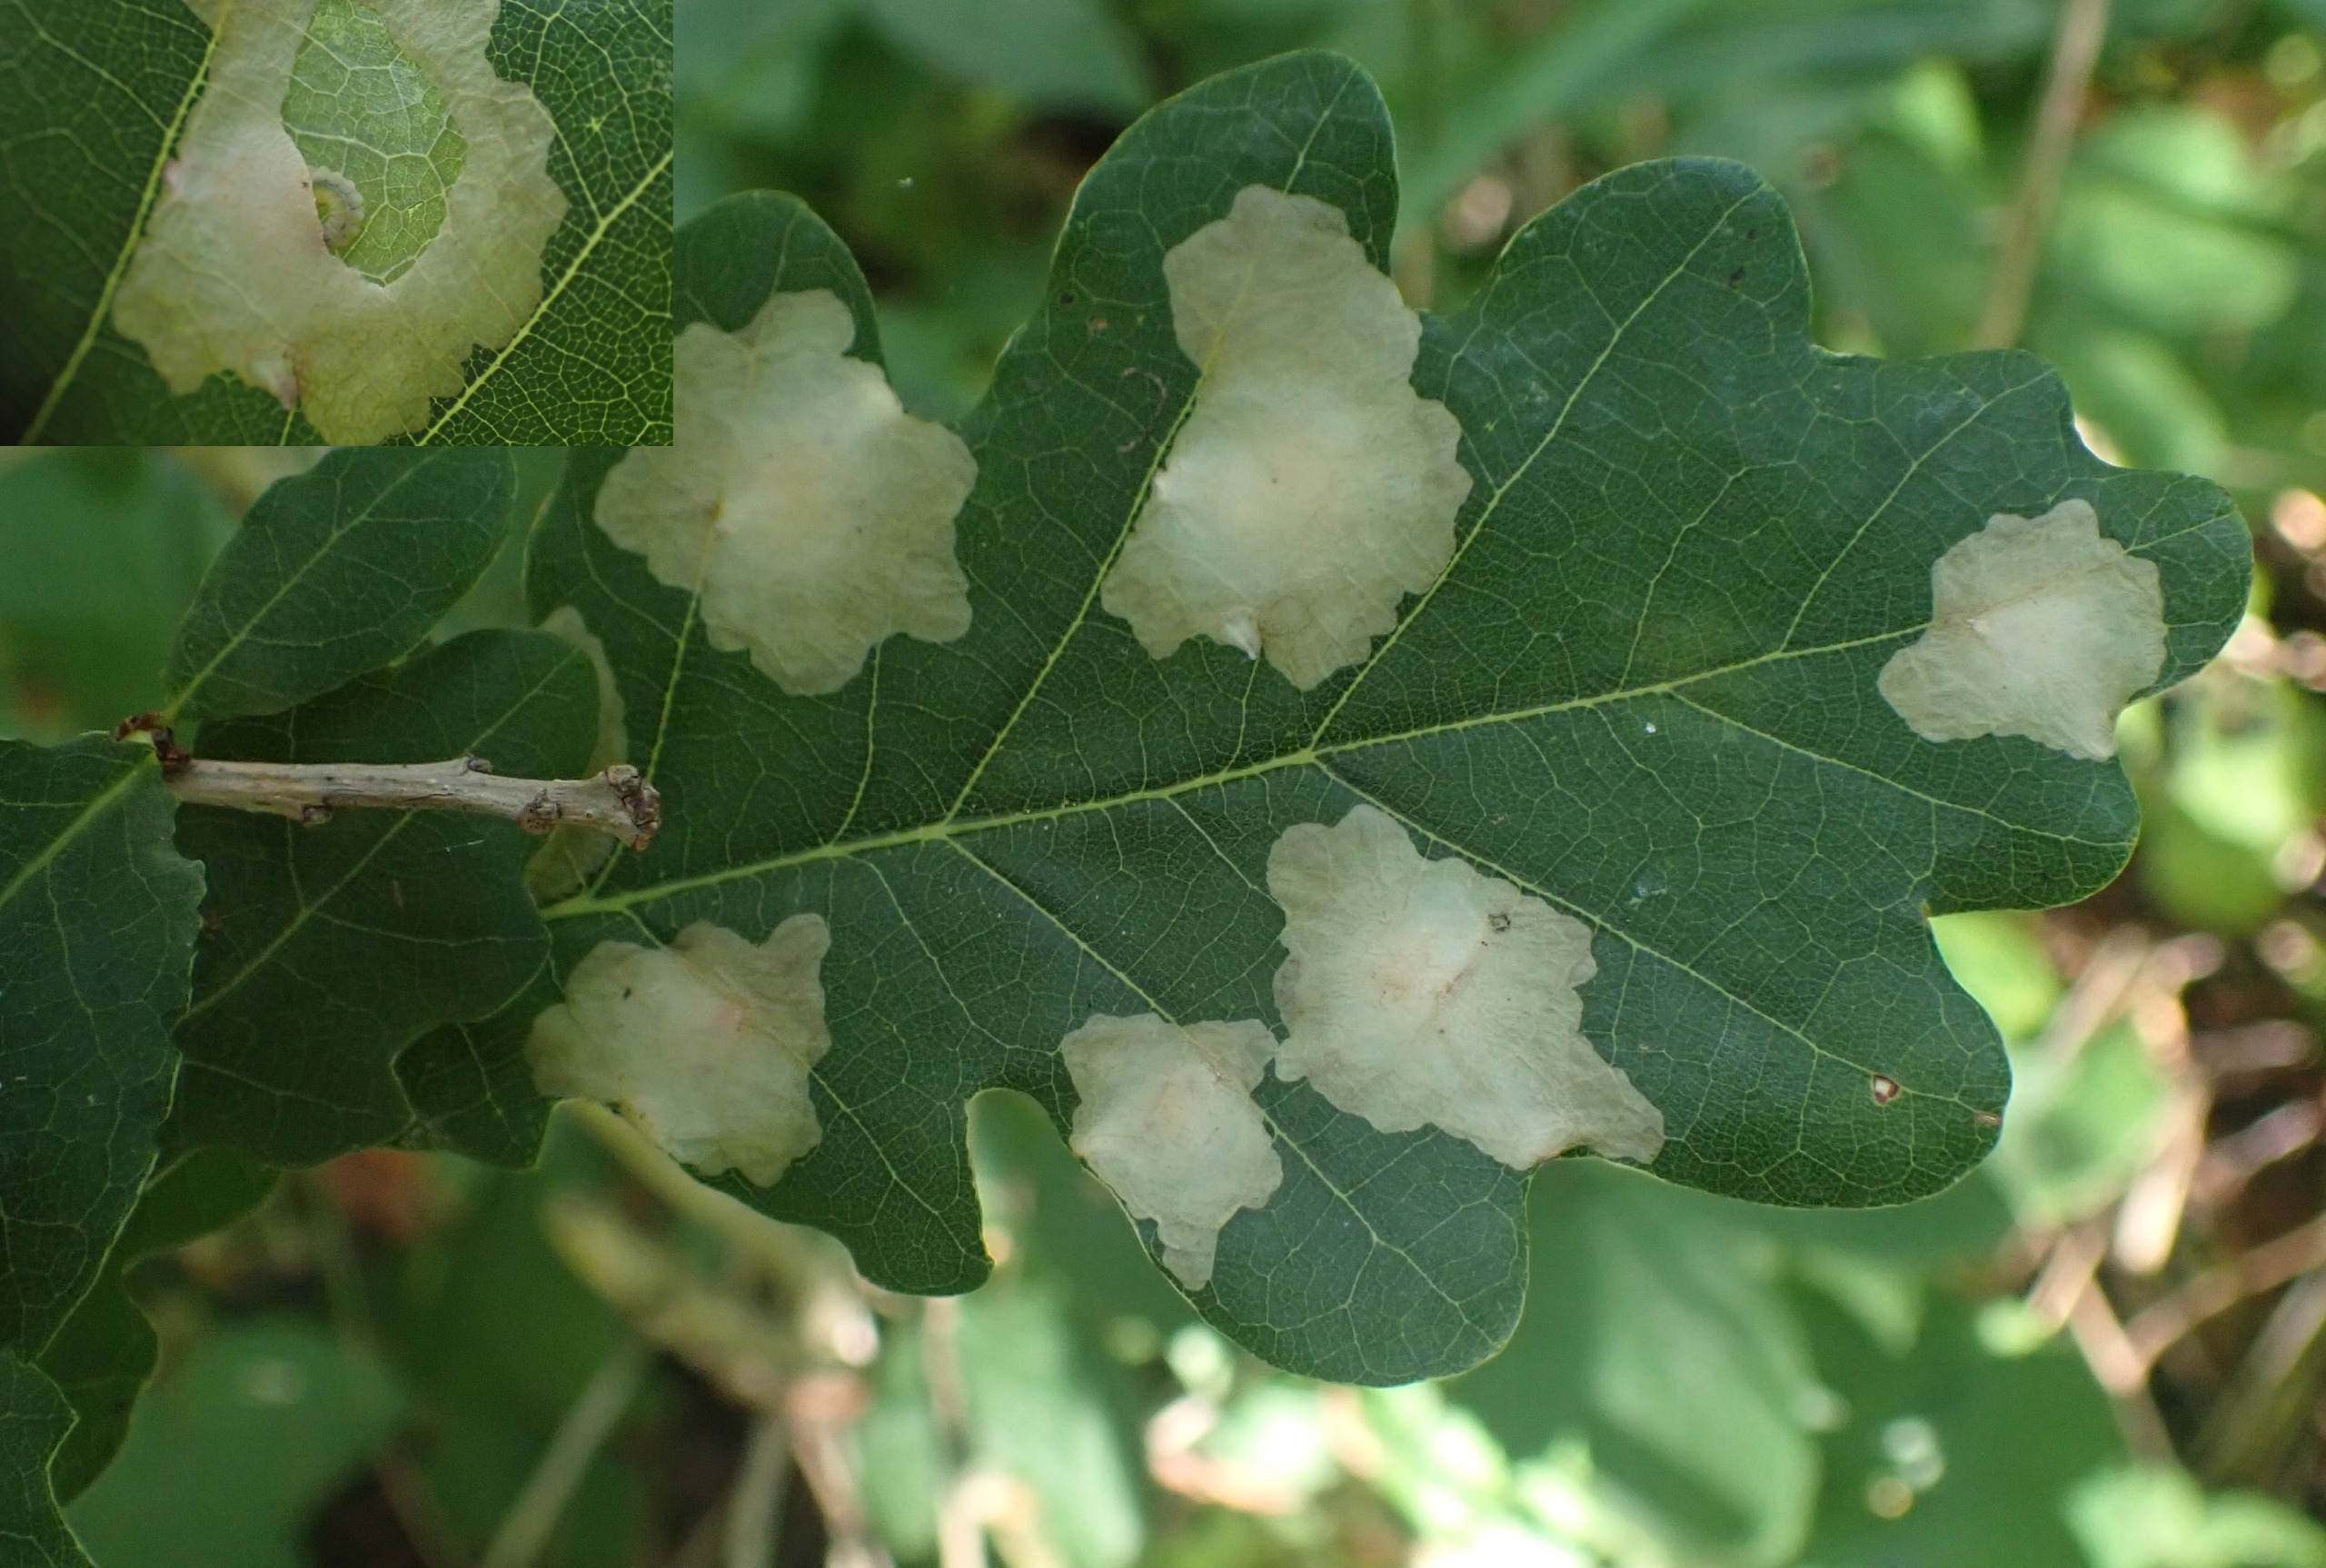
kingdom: Animalia
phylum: Arthropoda
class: Insecta
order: Lepidoptera
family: Tischeriidae
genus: Tischeria
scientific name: Tischeria ekebladella
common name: Egepandeduskmøl
